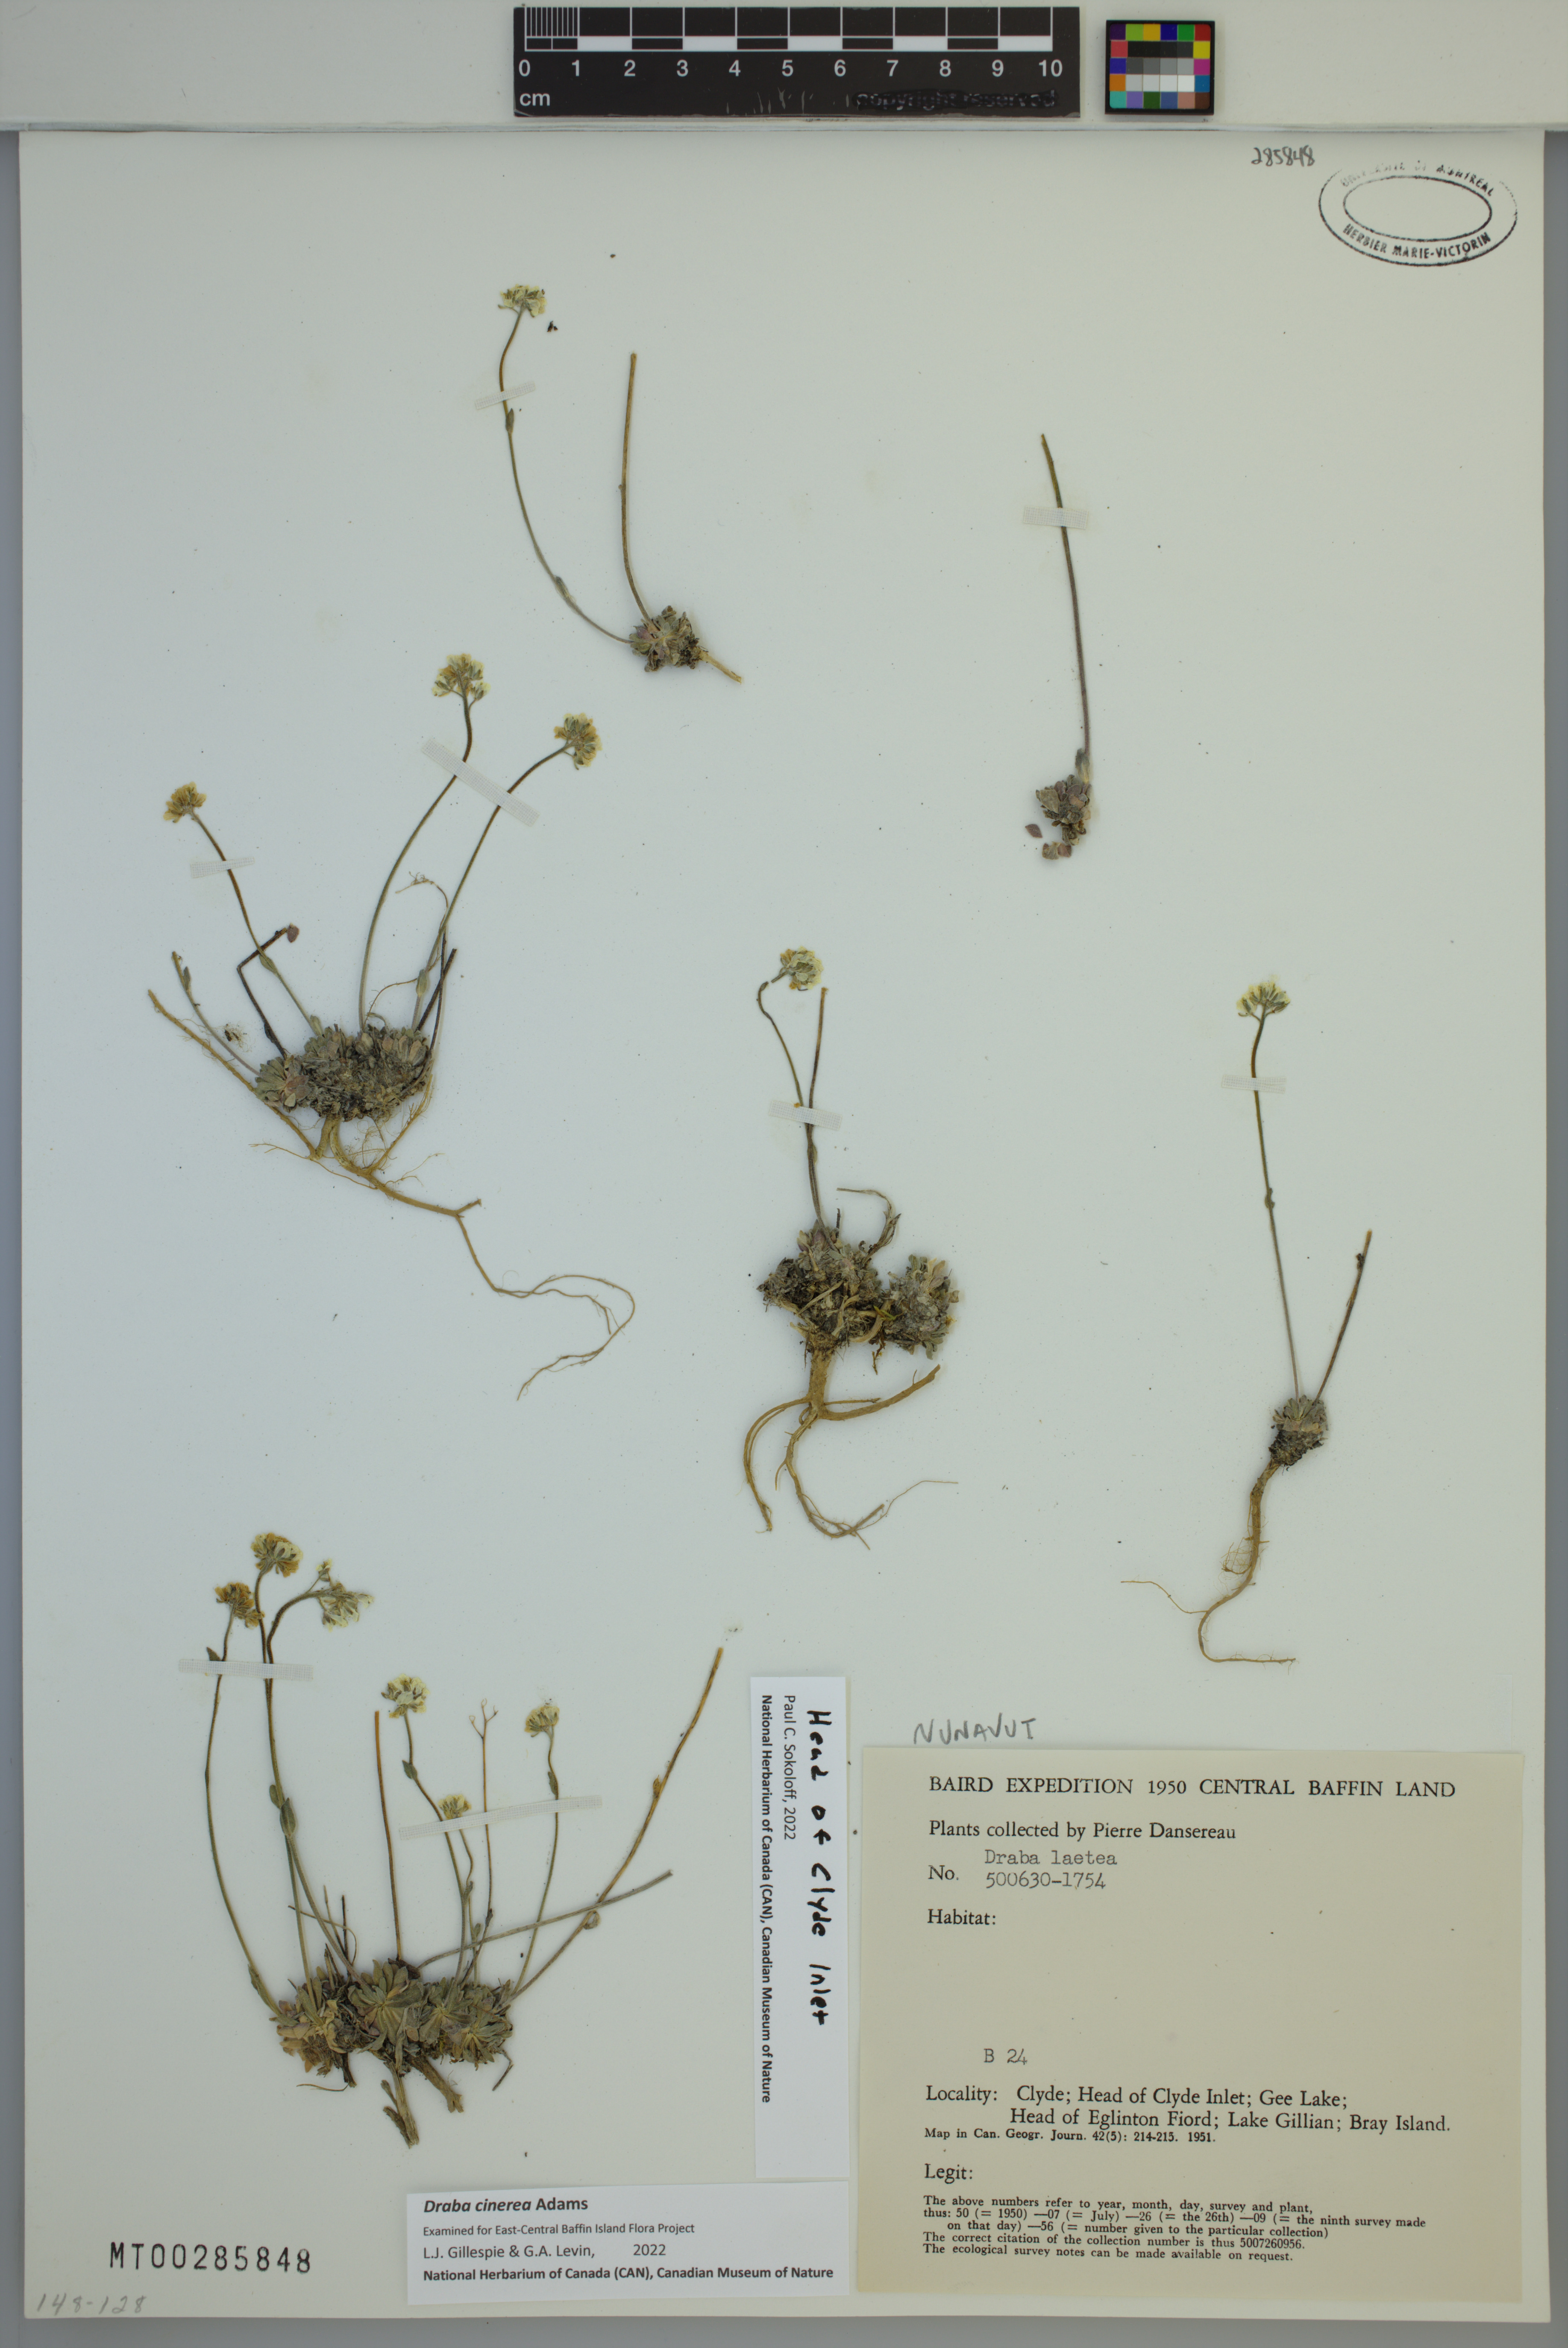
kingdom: Plantae
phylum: Tracheophyta
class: Magnoliopsida
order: Brassicales
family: Brassicaceae
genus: Draba
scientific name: Draba cinerea
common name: Ash-coloured whitlow-grass
